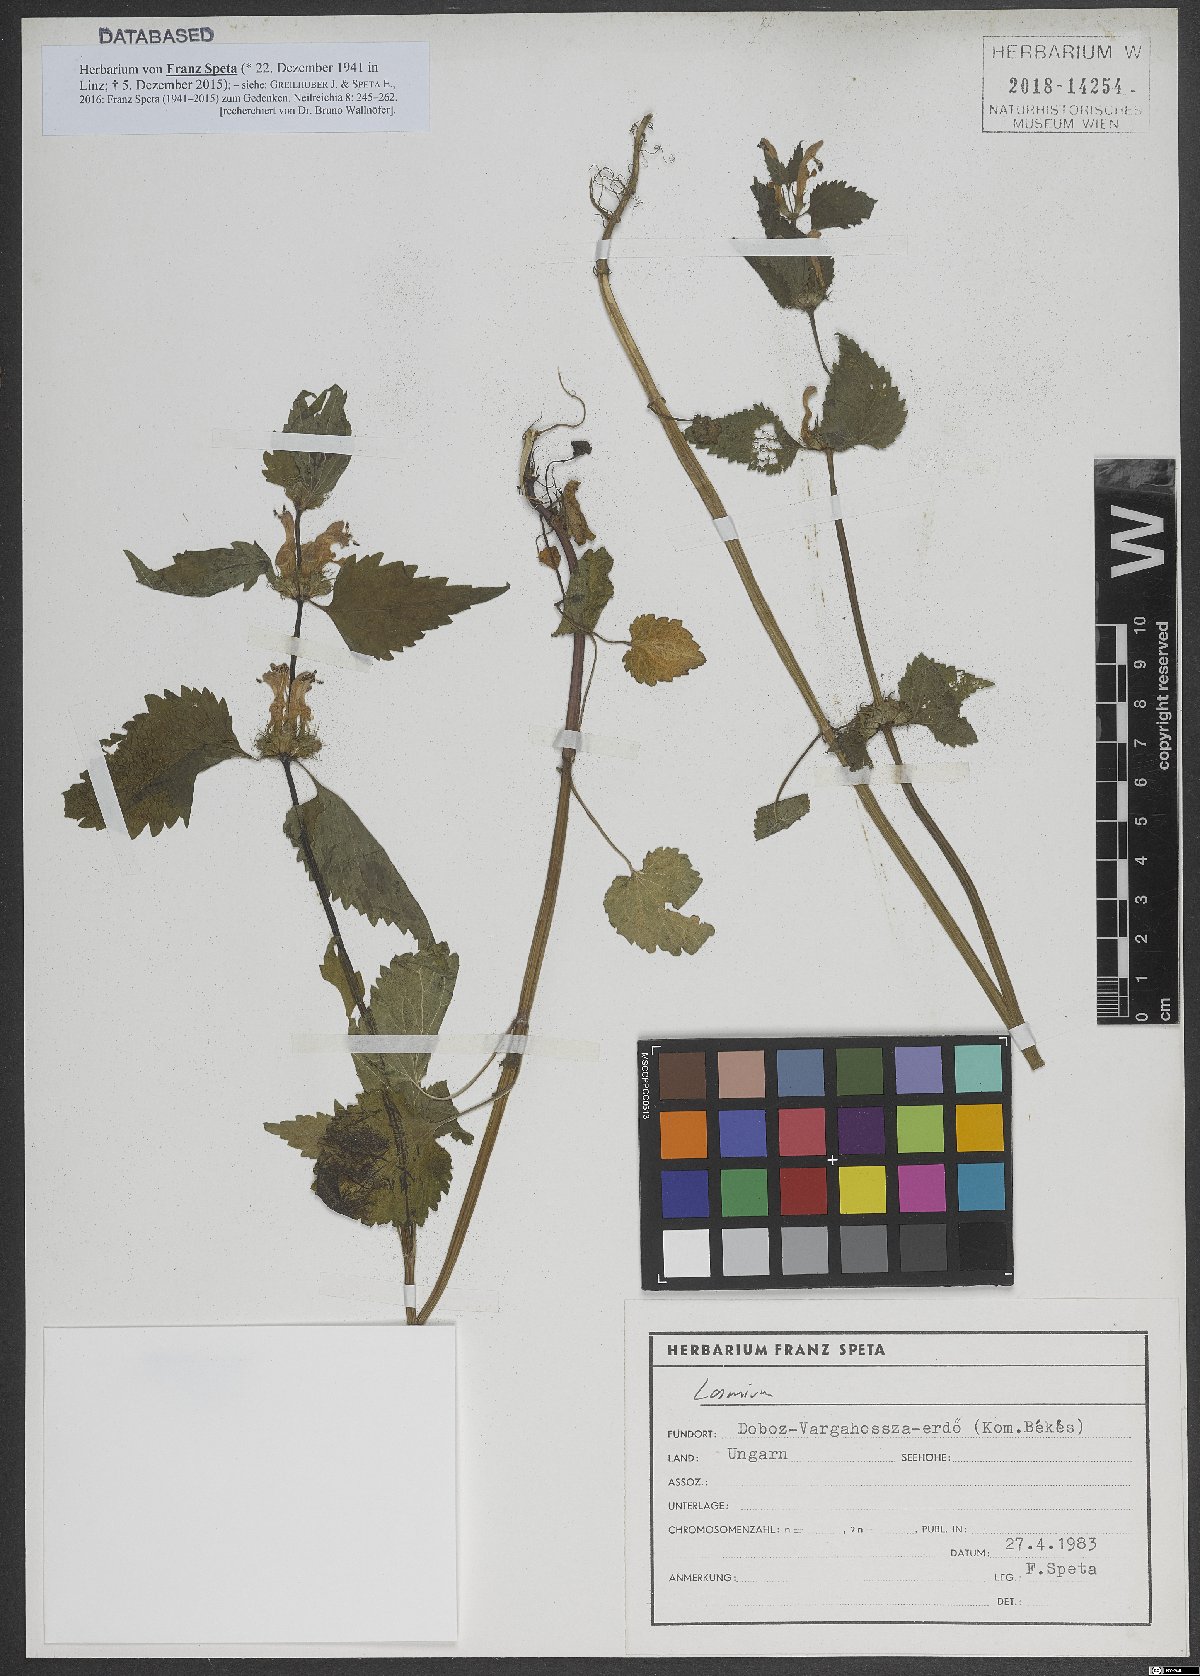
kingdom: Plantae
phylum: Tracheophyta
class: Magnoliopsida
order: Lamiales
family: Lamiaceae
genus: Lamium
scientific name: Lamium
